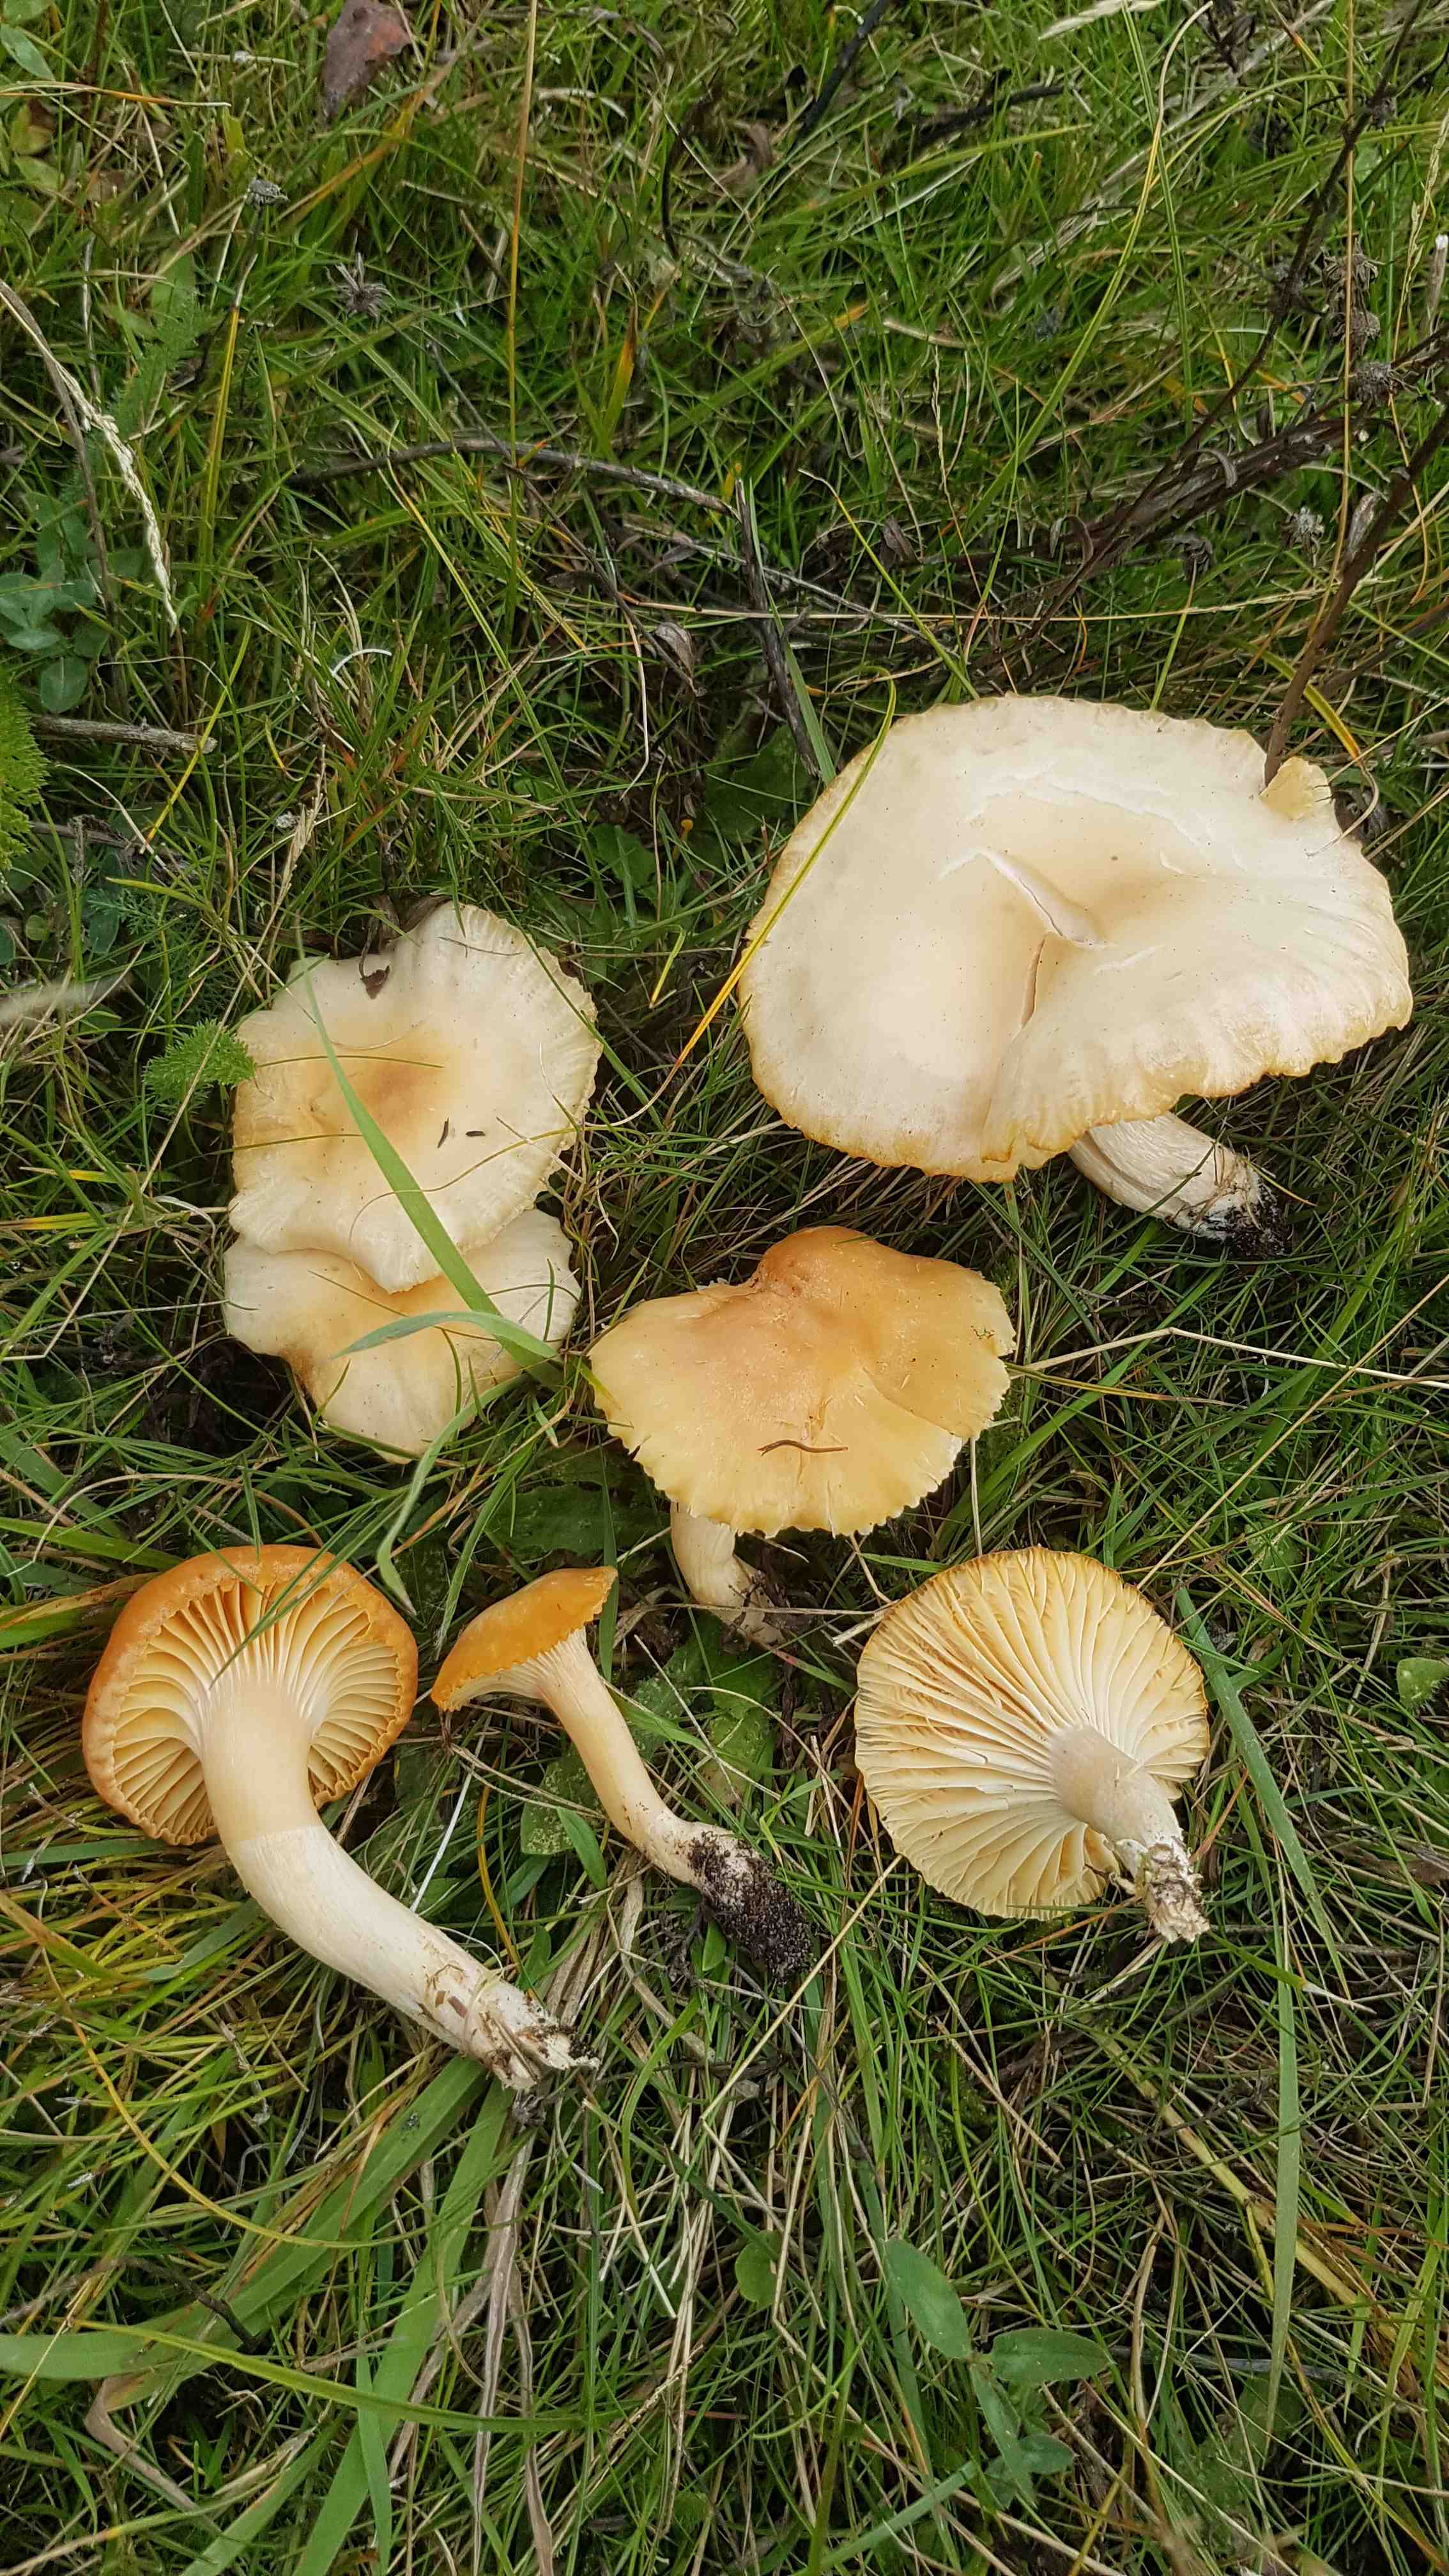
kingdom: Fungi
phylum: Basidiomycota
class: Agaricomycetes
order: Agaricales
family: Hygrophoraceae
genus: Cuphophyllus
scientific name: Cuphophyllus pratensis
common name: eng-vokshat
